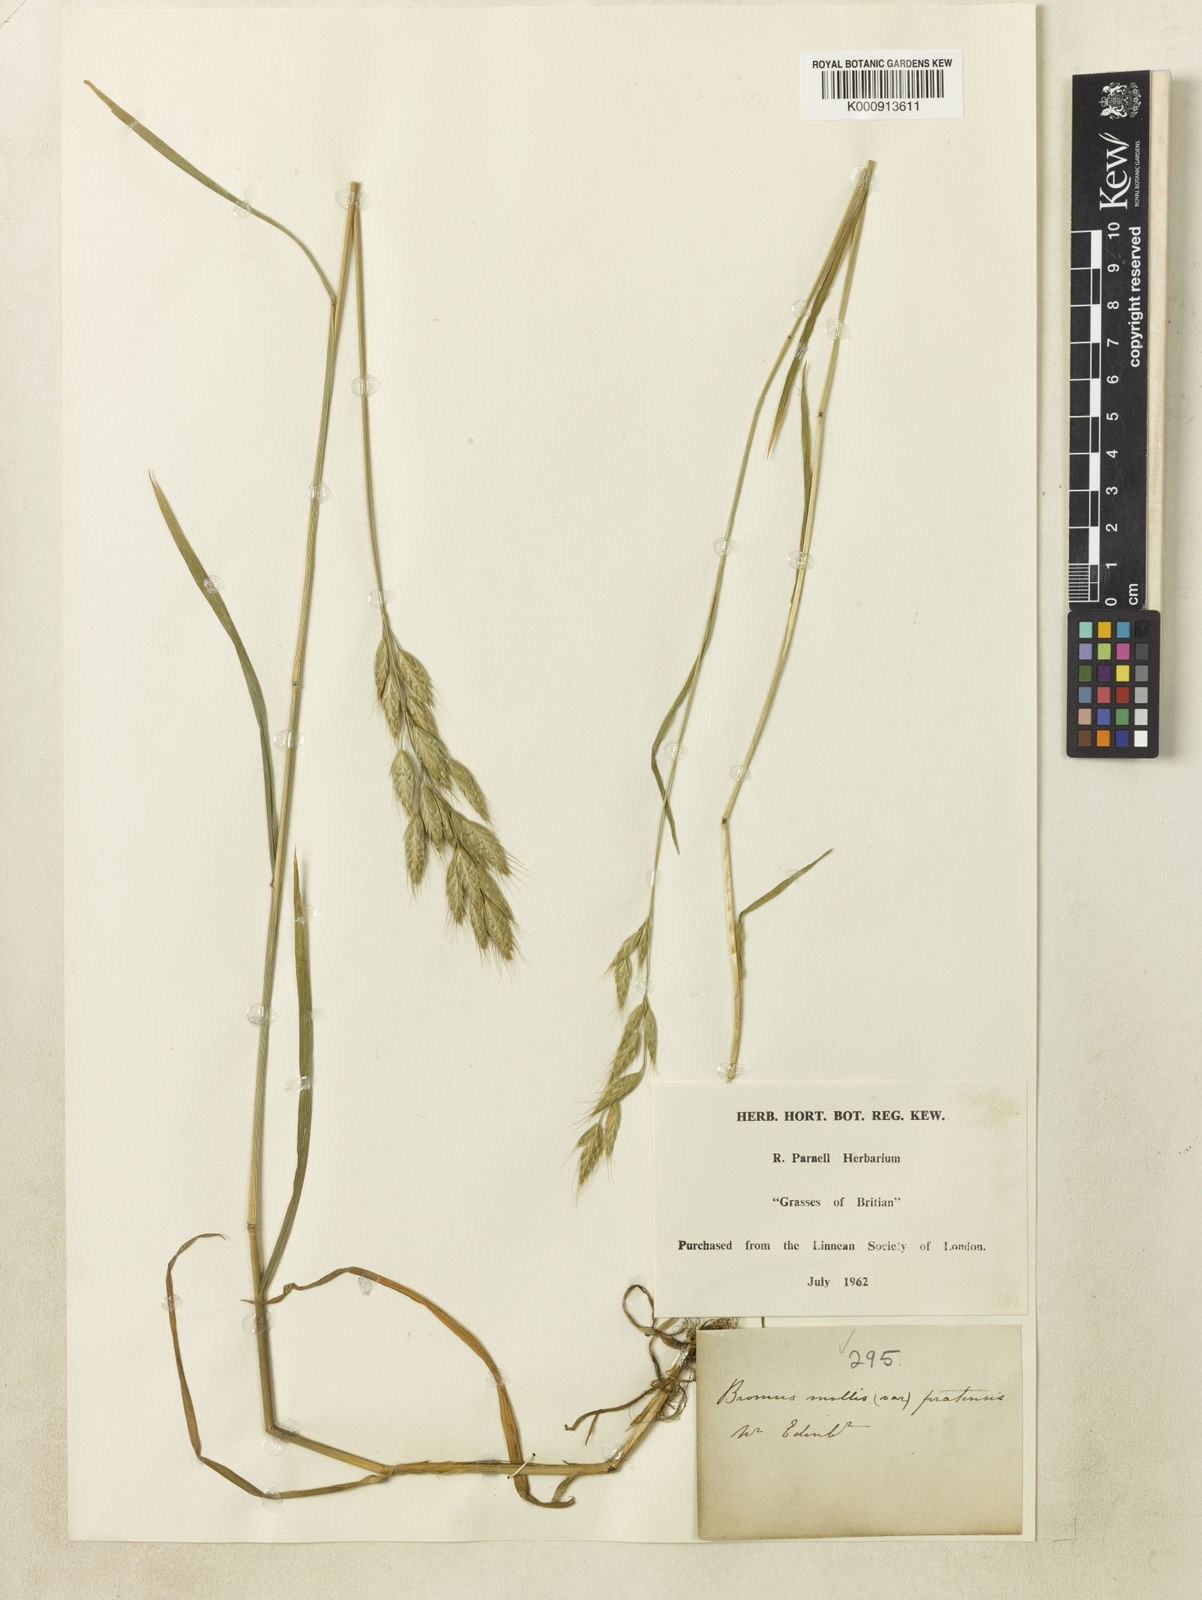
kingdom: Plantae
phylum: Tracheophyta
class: Liliopsida
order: Poales
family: Poaceae
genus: Bromus
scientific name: Bromus hordeaceus
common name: Soft brome
